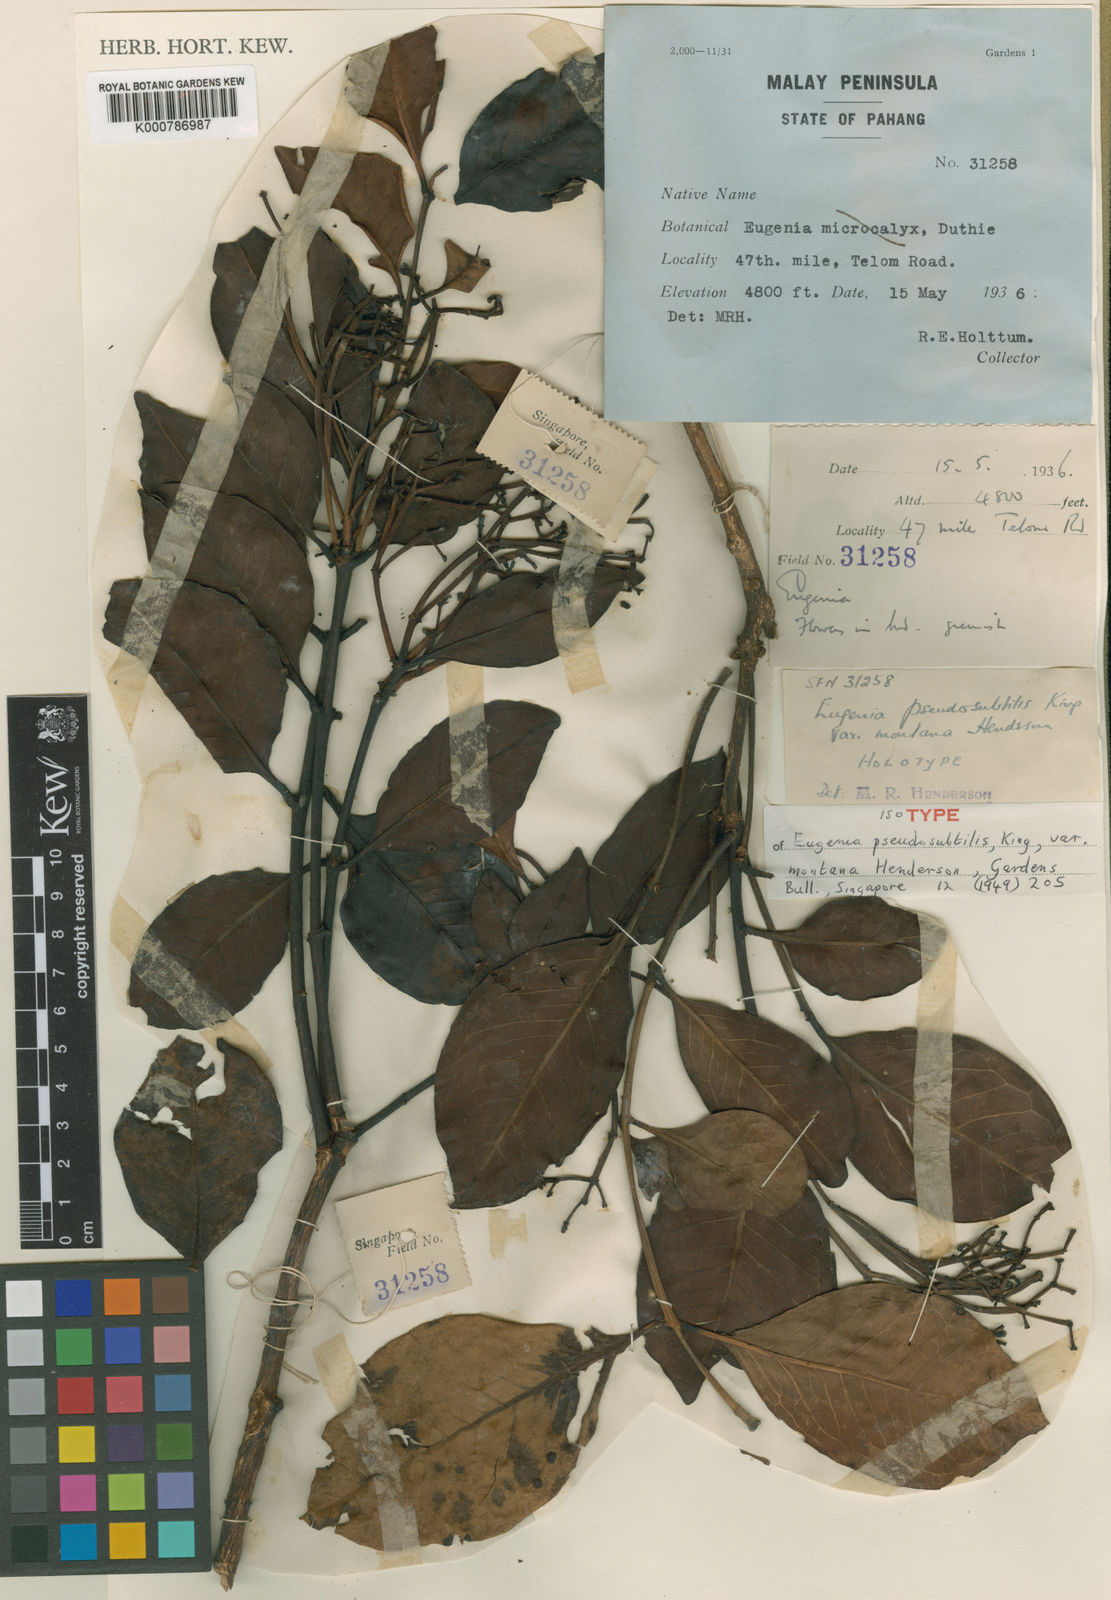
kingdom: Plantae
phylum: Tracheophyta
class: Magnoliopsida
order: Myrtales
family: Myrtaceae
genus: Syzygium
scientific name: Syzygium borneense
